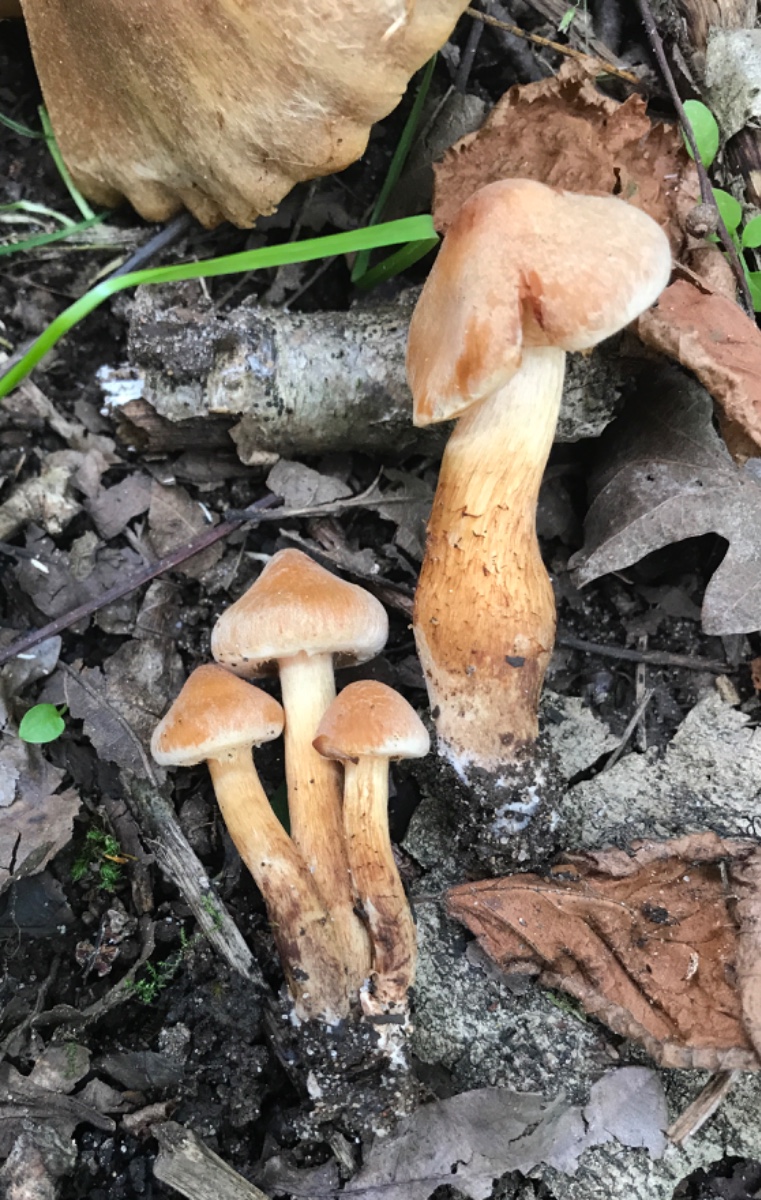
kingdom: Fungi
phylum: Basidiomycota
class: Agaricomycetes
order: Agaricales
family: Cortinariaceae
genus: Cortinarius
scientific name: Cortinarius roseonudipes
